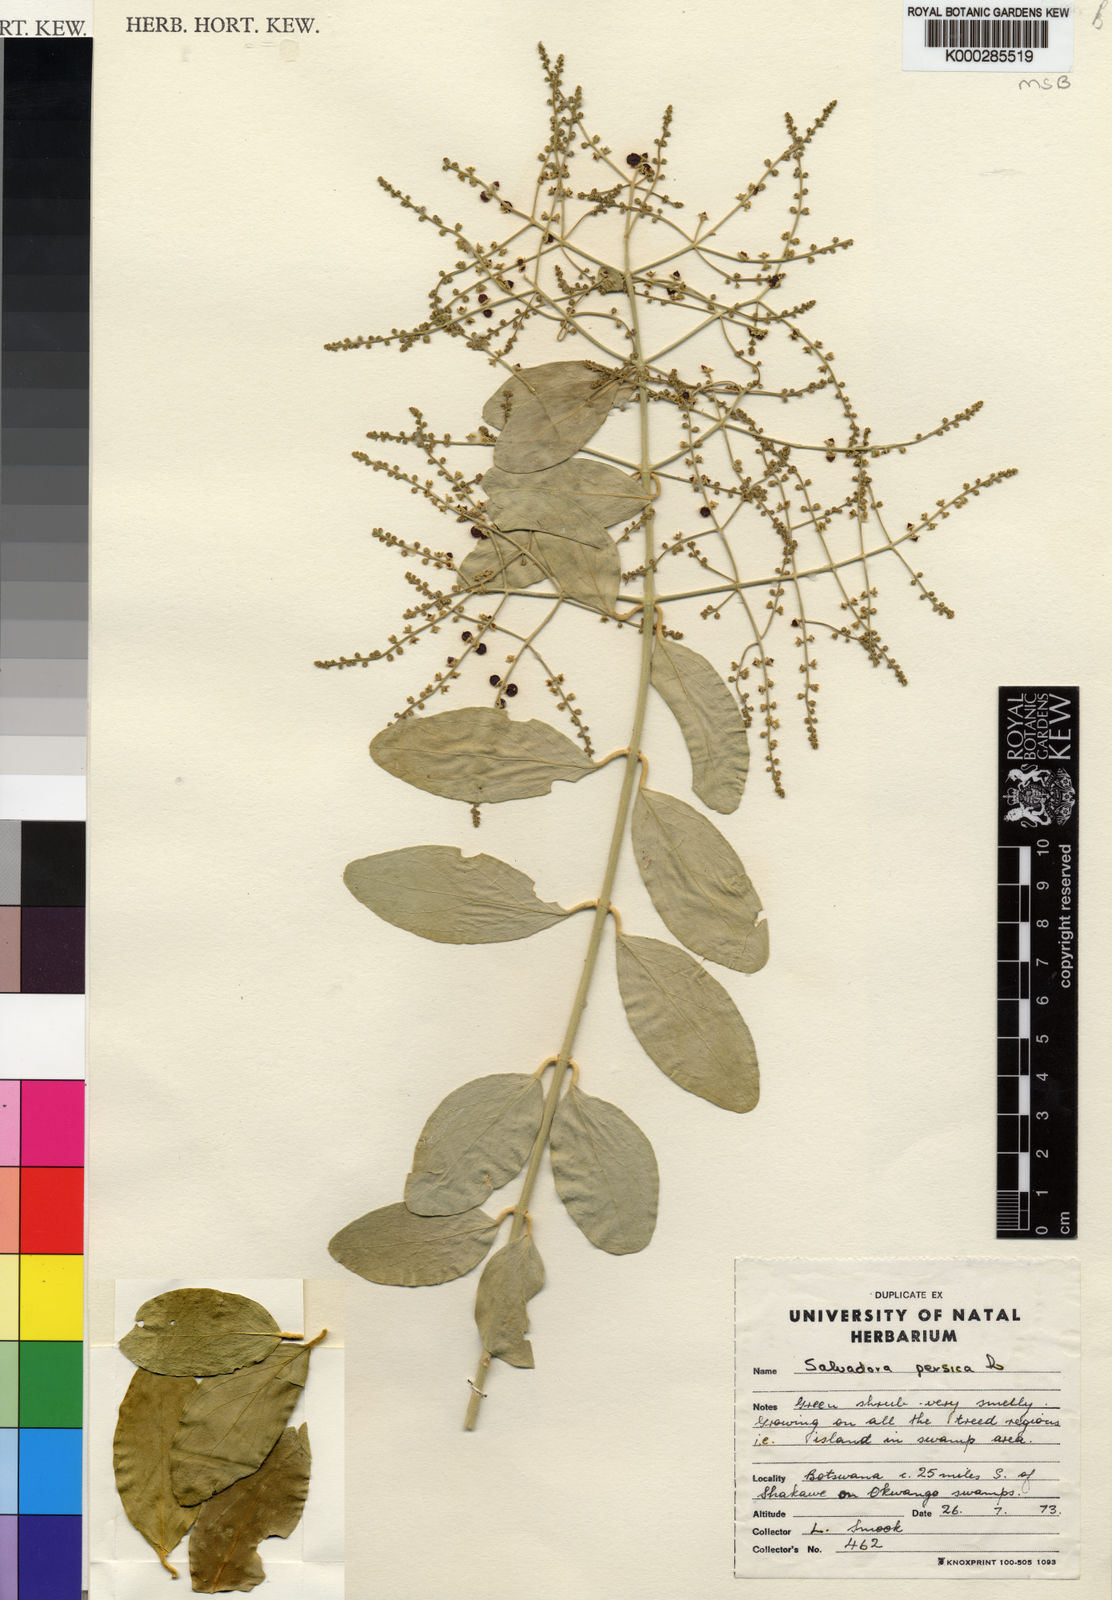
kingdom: Plantae
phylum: Tracheophyta
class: Magnoliopsida
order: Brassicales
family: Salvadoraceae
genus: Salvadora
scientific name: Salvadora persica
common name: Toothbrushtree
